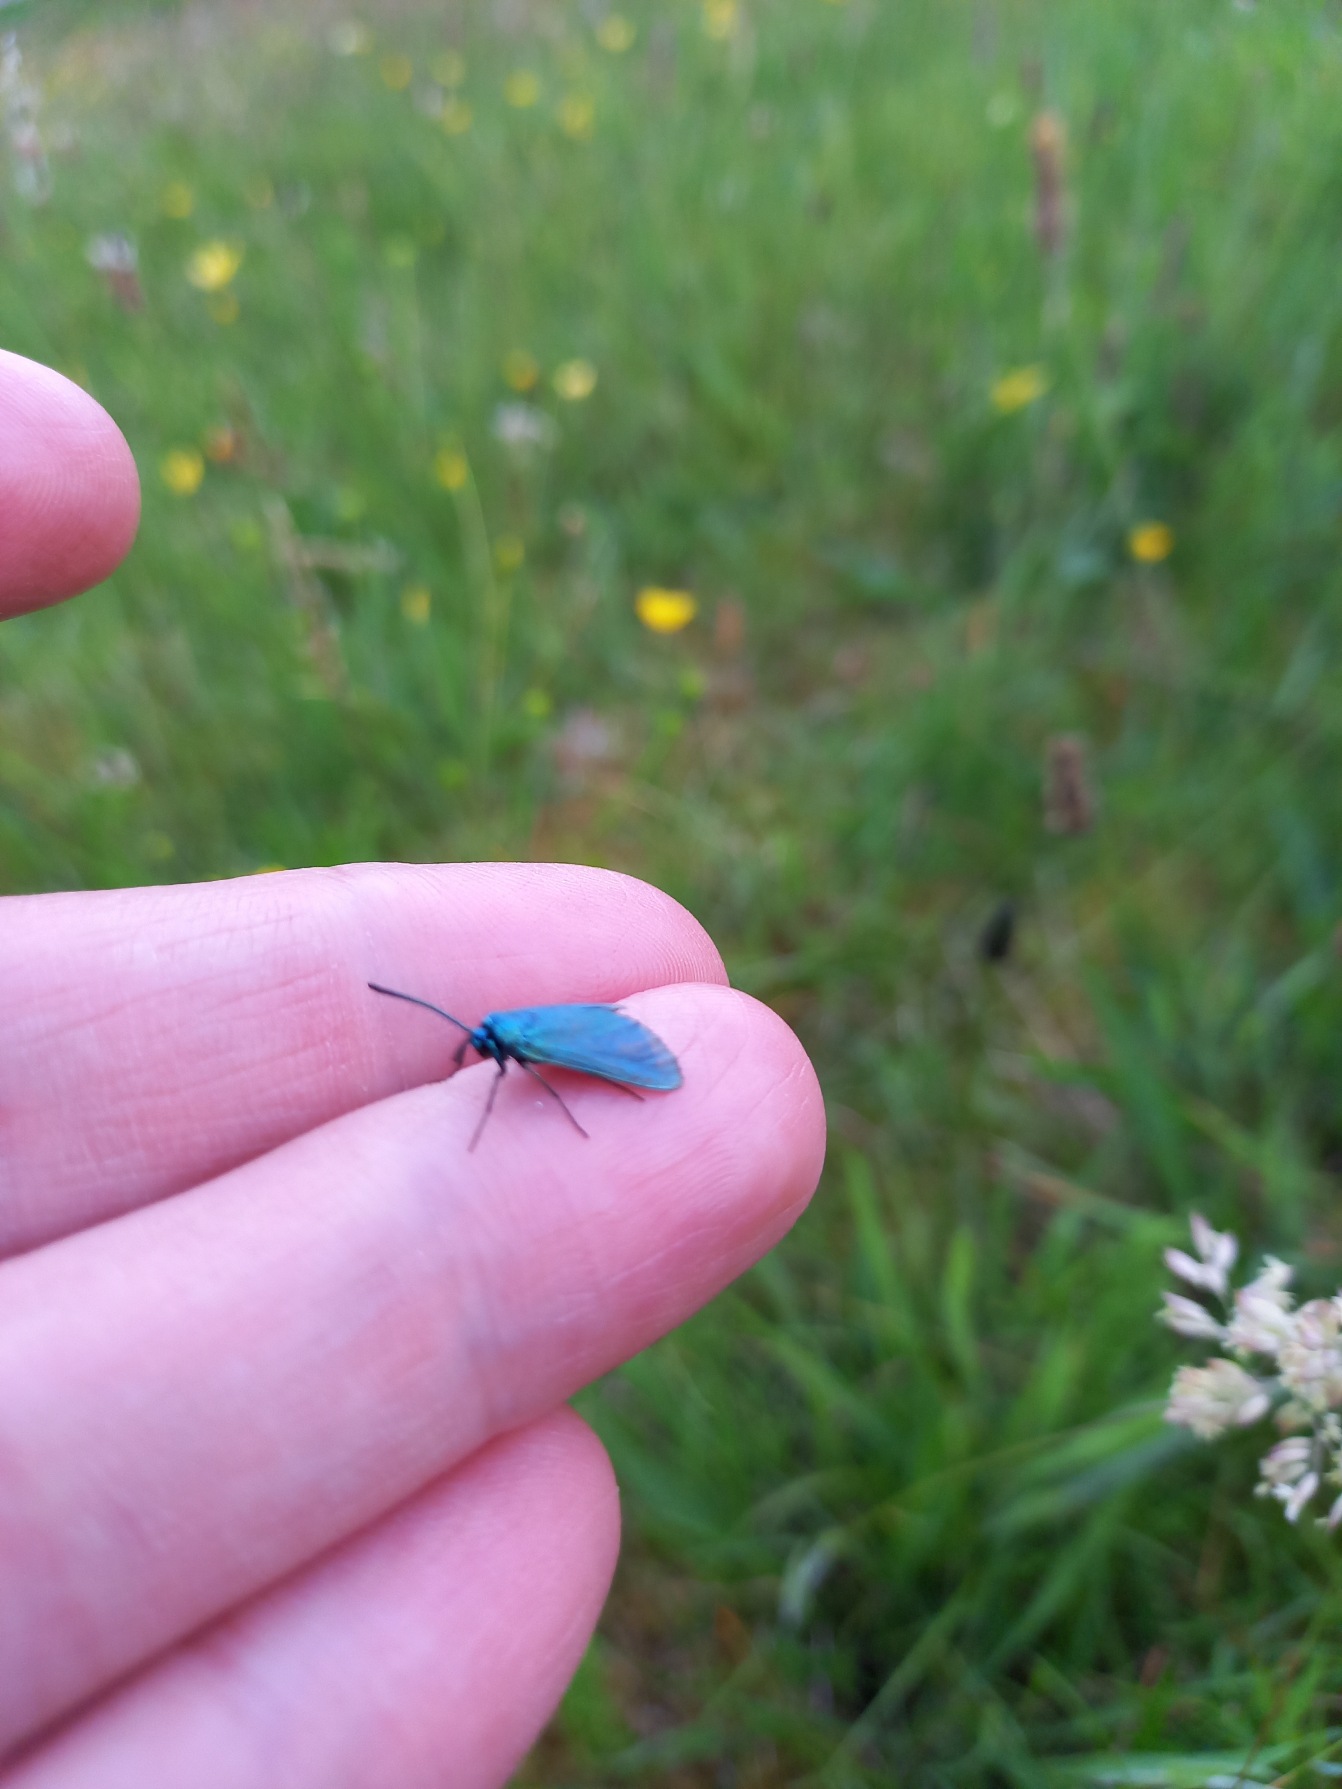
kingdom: Animalia
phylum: Arthropoda
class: Insecta
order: Lepidoptera
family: Zygaenidae
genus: Adscita
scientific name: Adscita statices
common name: Metalvinge
